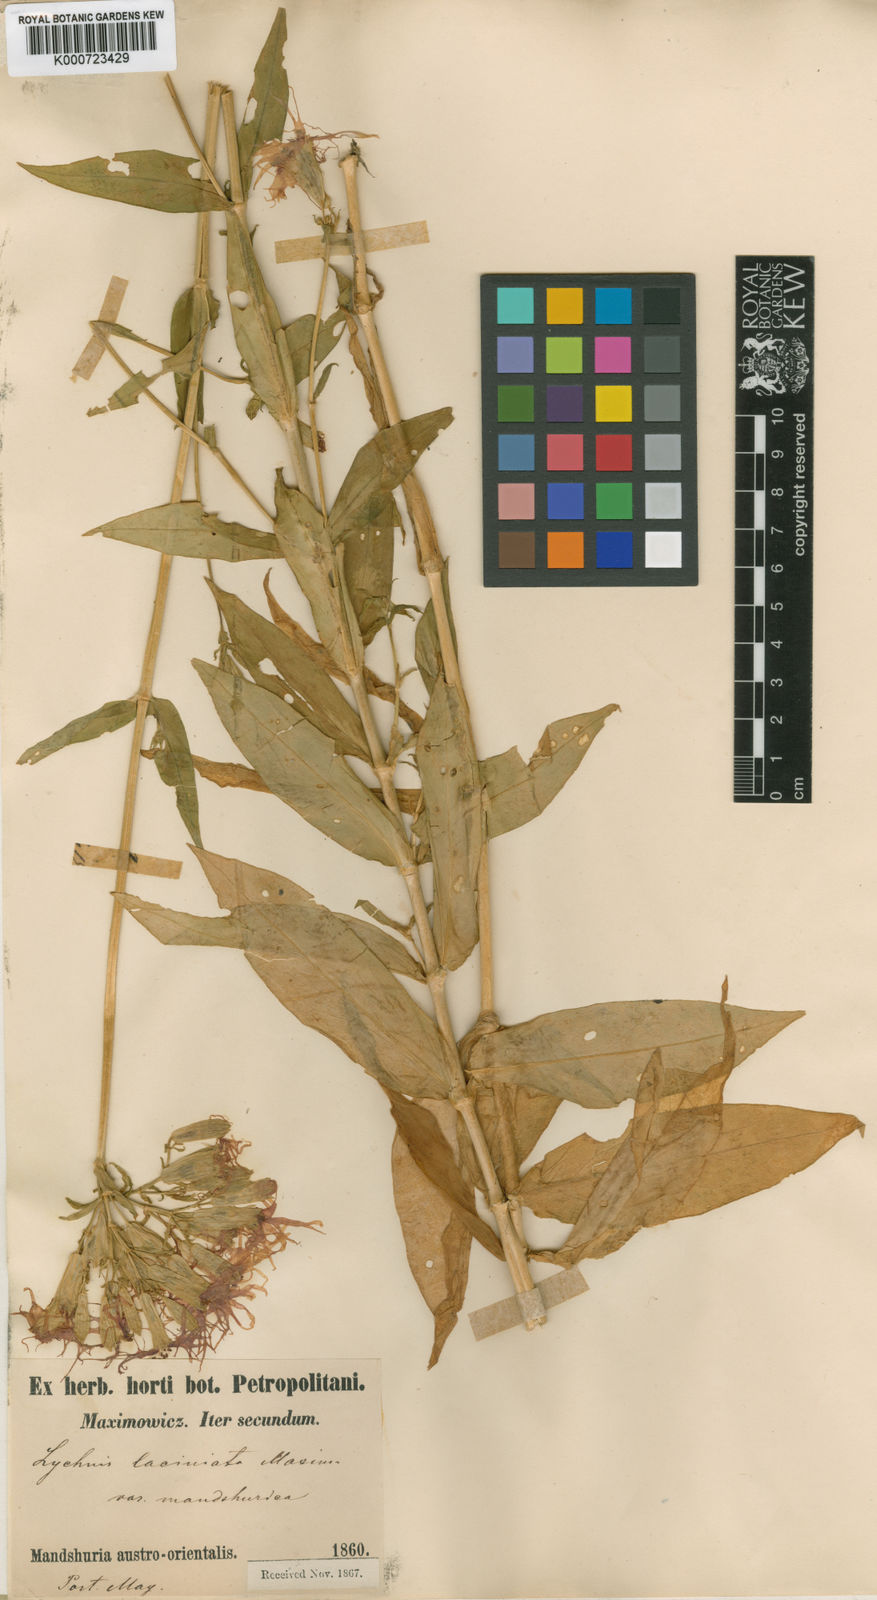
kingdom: Plantae
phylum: Tracheophyta
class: Magnoliopsida
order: Caryophyllales
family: Caryophyllaceae
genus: Silene
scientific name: Silene wilfordii
